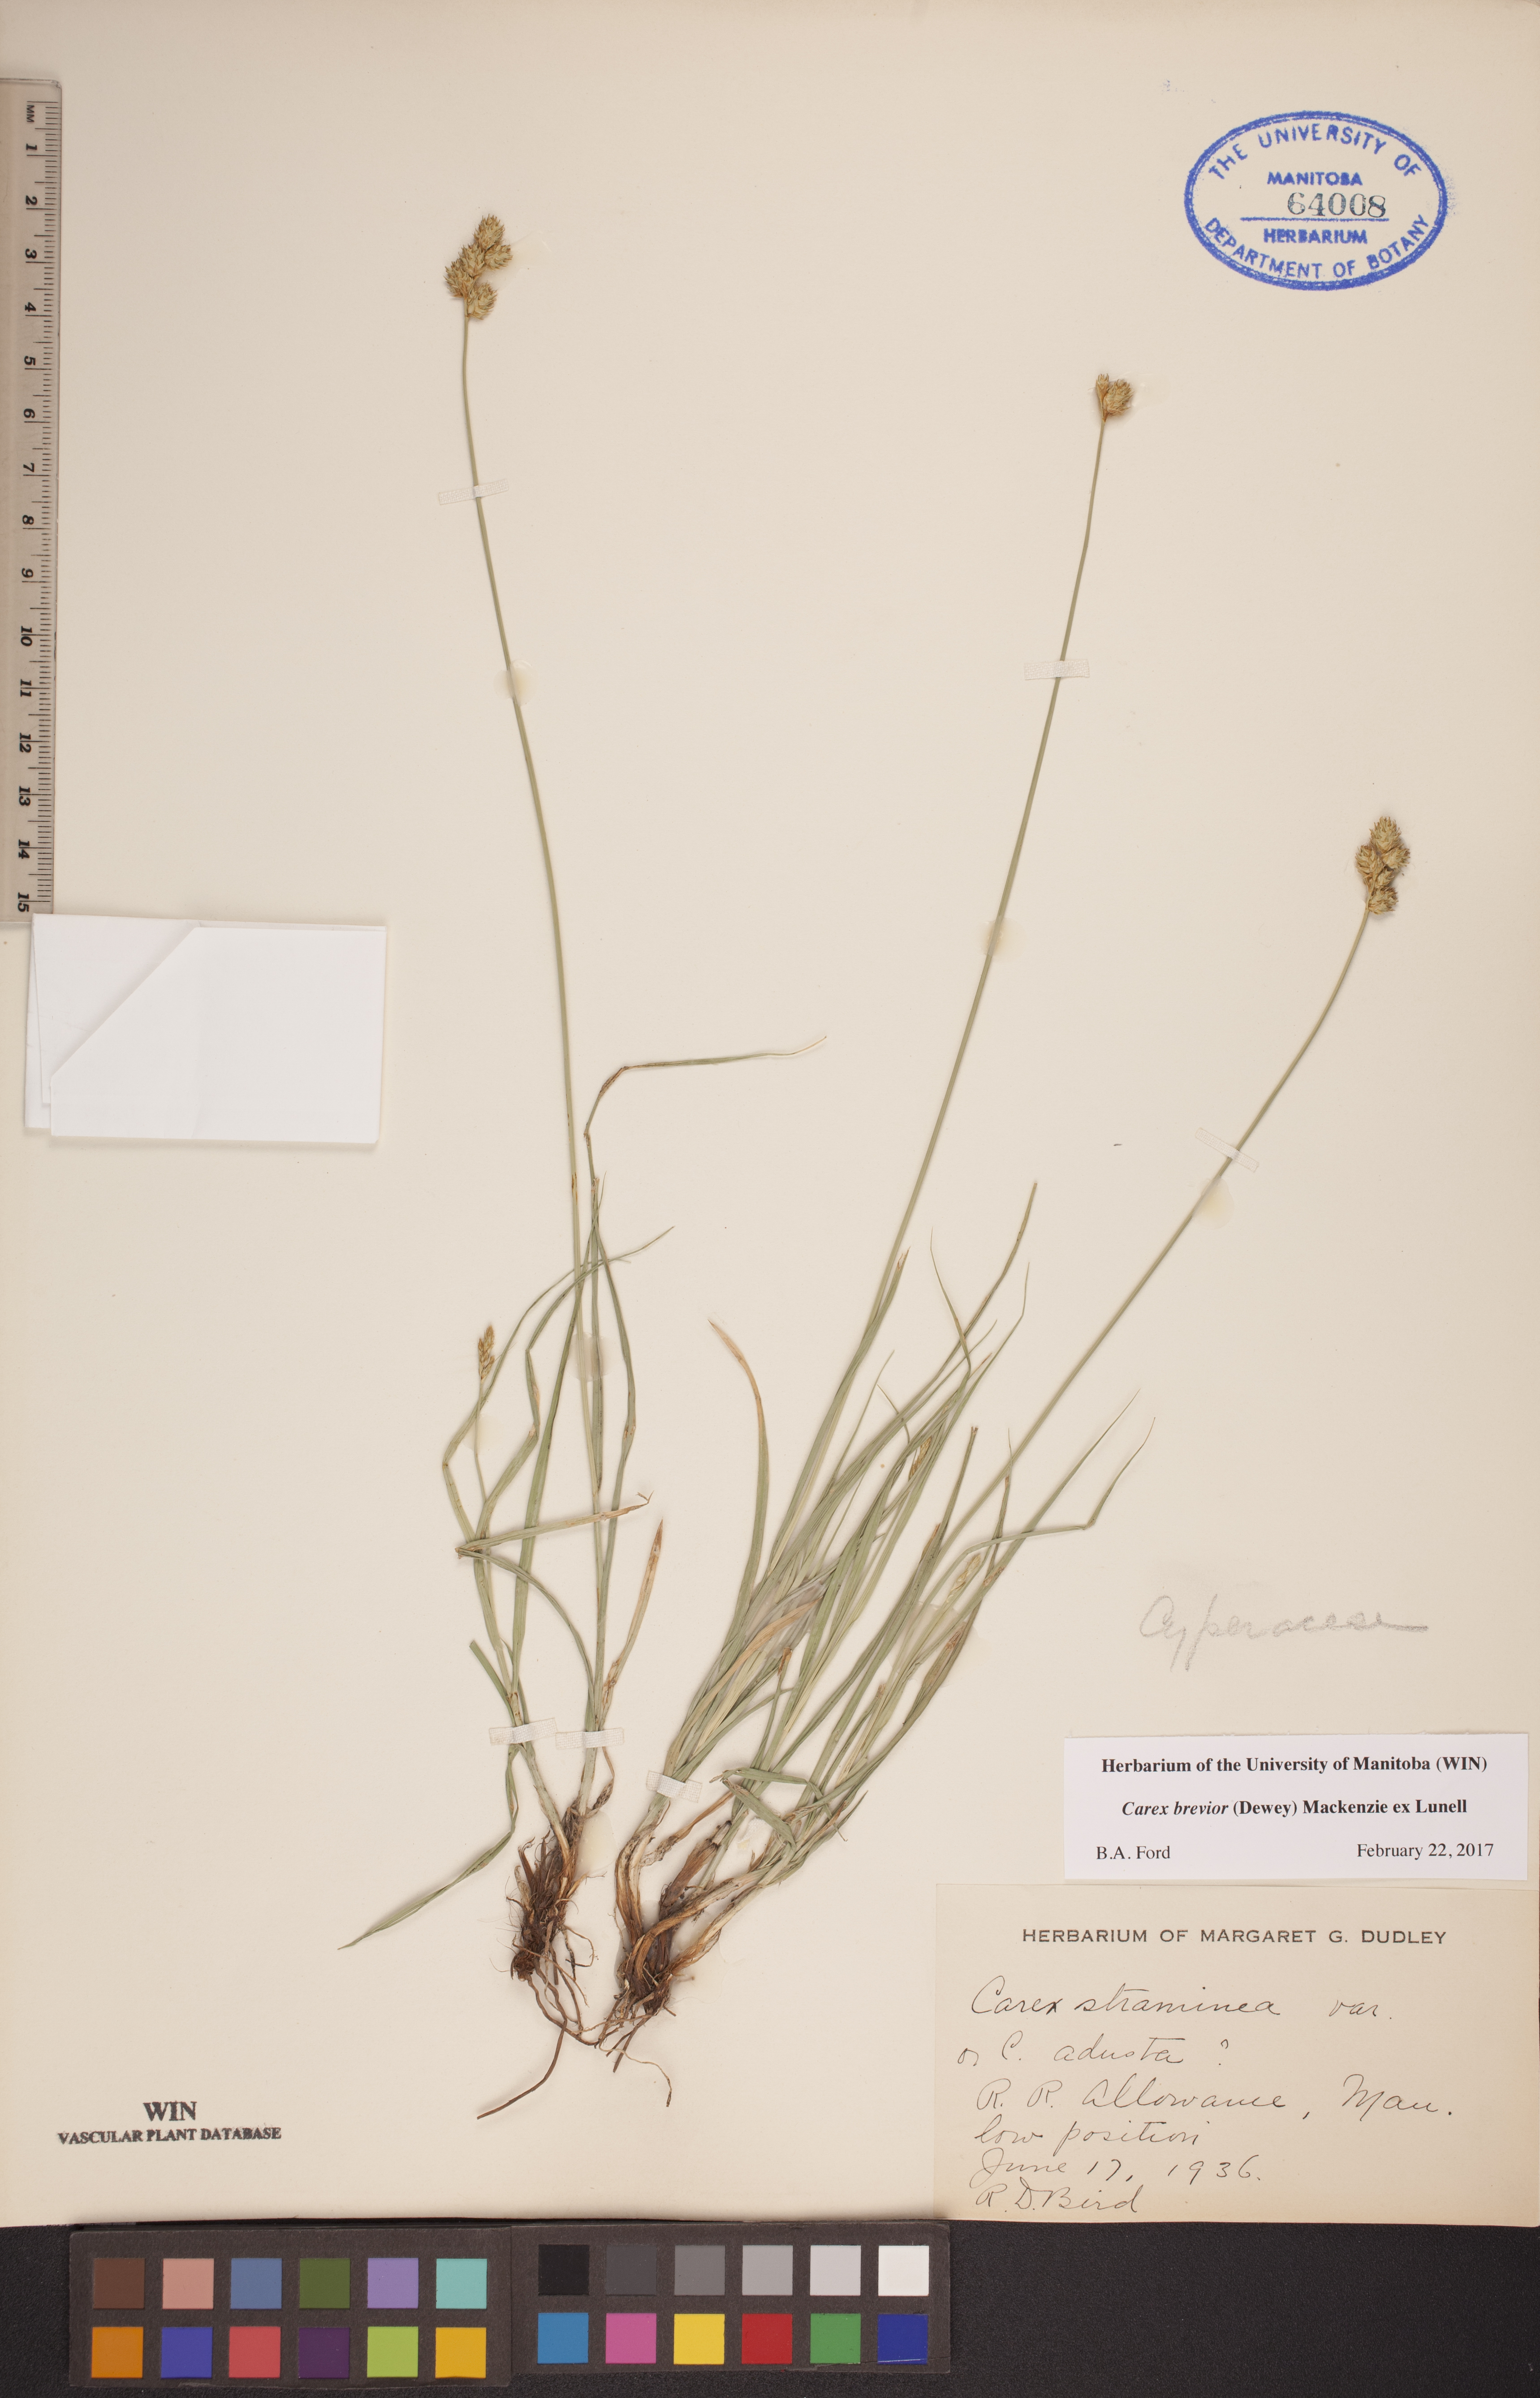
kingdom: Plantae
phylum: Tracheophyta
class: Liliopsida
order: Poales
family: Cyperaceae
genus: Carex
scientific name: Carex brevior
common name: Brevior sedge
